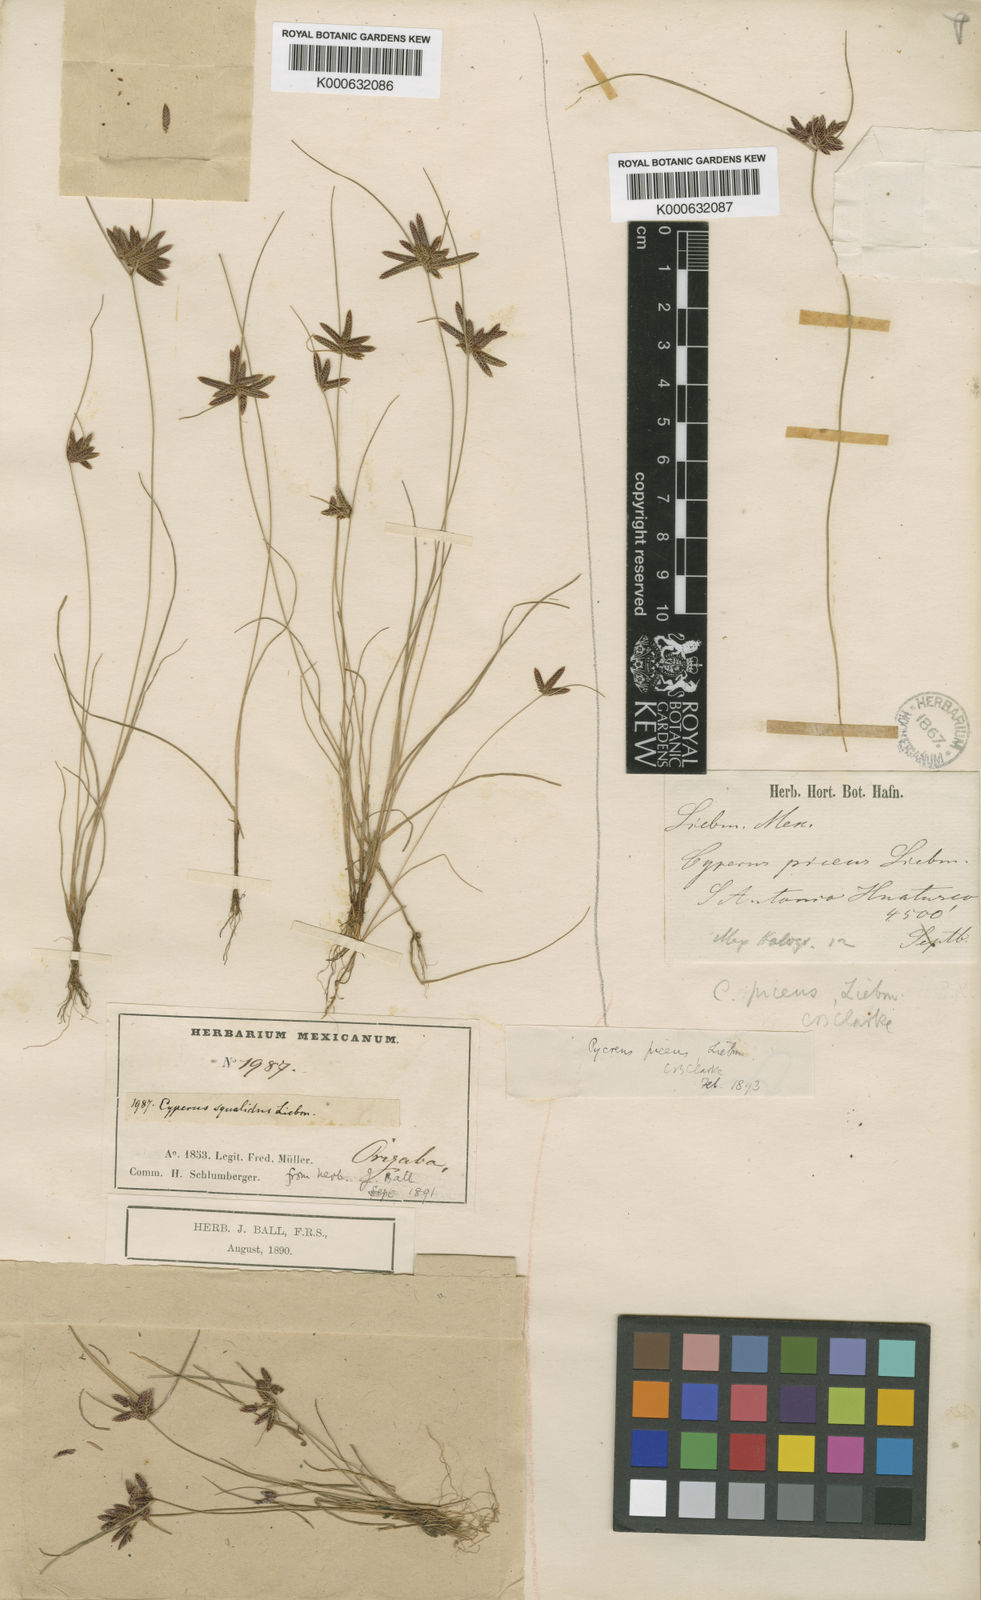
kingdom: Plantae
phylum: Tracheophyta
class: Liliopsida
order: Poales
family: Cyperaceae
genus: Cyperus
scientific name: Cyperus flavescens
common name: Yellow galingale
